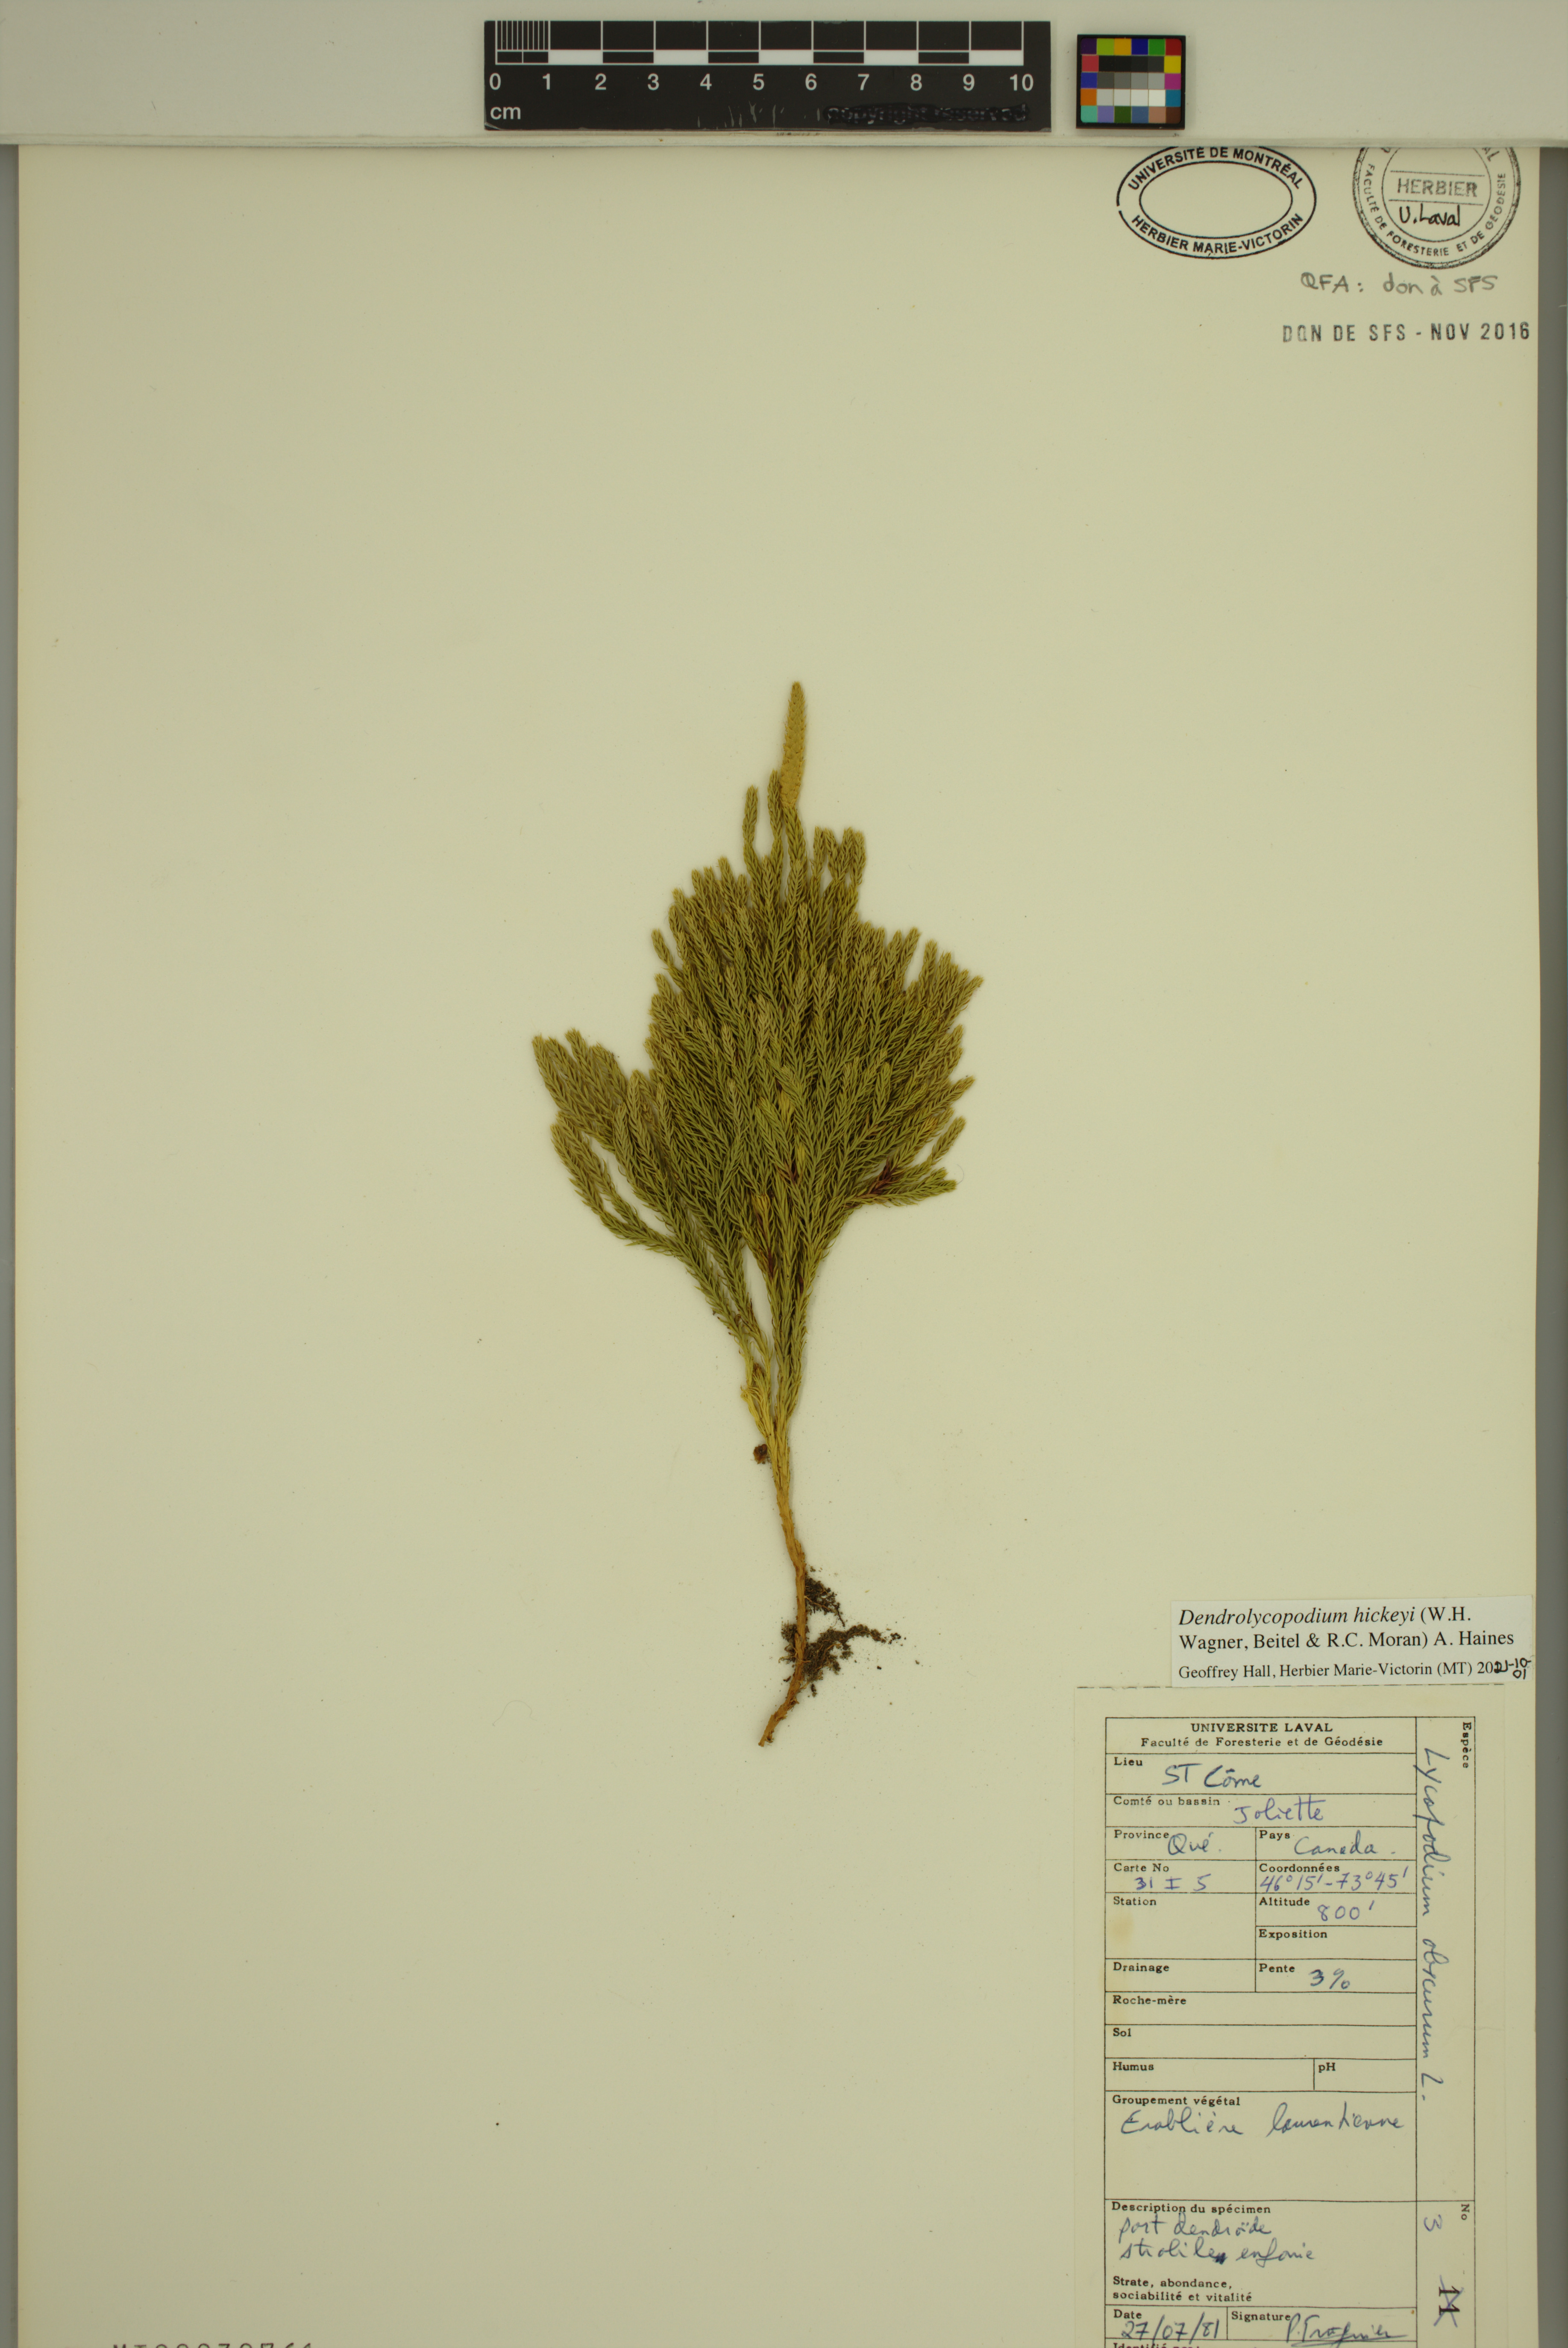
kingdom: Plantae
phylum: Tracheophyta
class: Lycopodiopsida
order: Lycopodiales
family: Lycopodiaceae
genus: Dendrolycopodium
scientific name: Dendrolycopodium hickeyi
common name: Hickey's clubmoss
